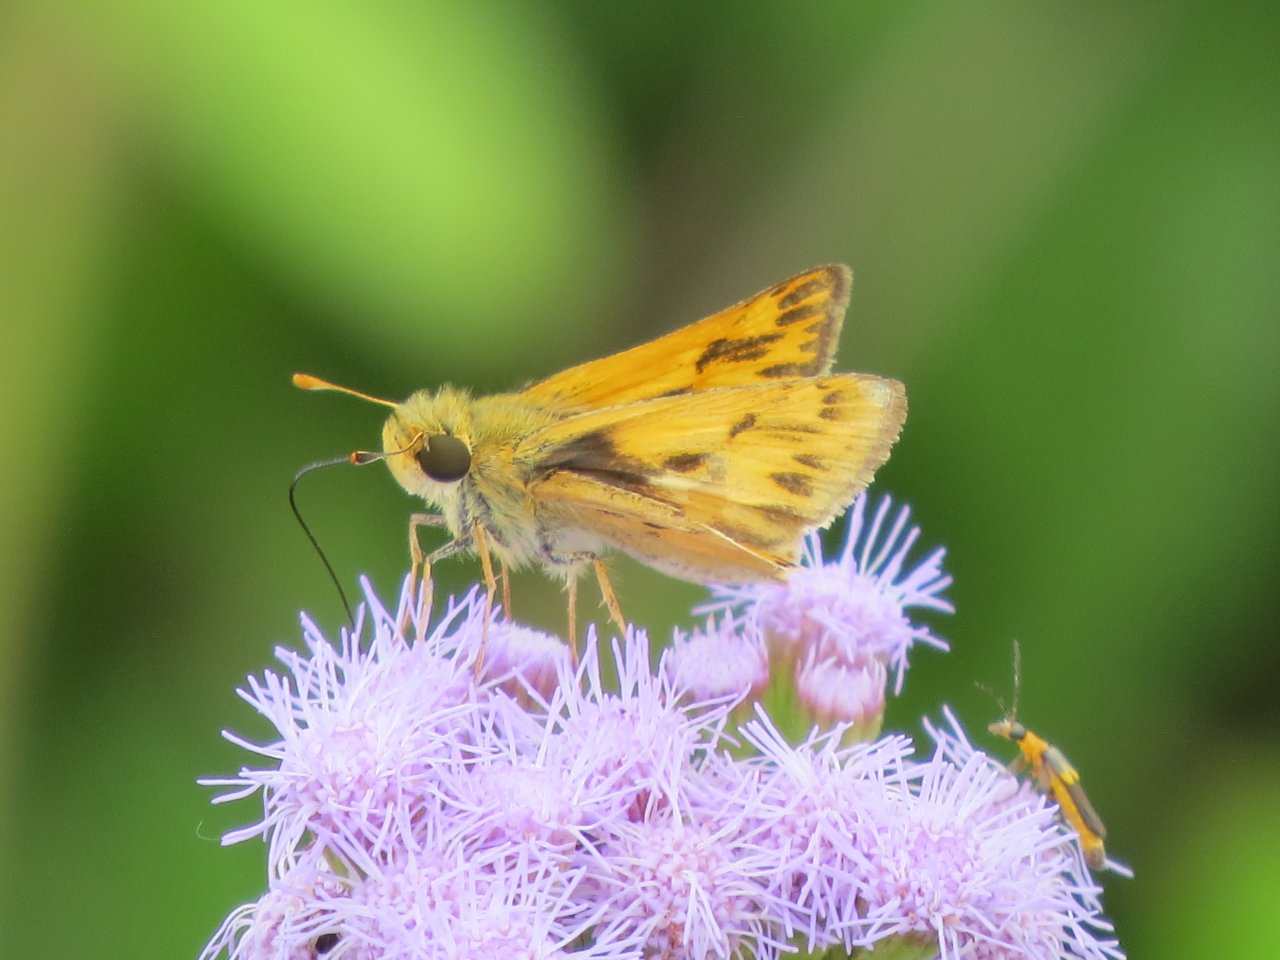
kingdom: Animalia
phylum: Arthropoda
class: Insecta
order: Lepidoptera
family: Hesperiidae
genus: Hylephila
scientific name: Hylephila phyleus
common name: Fiery Skipper
